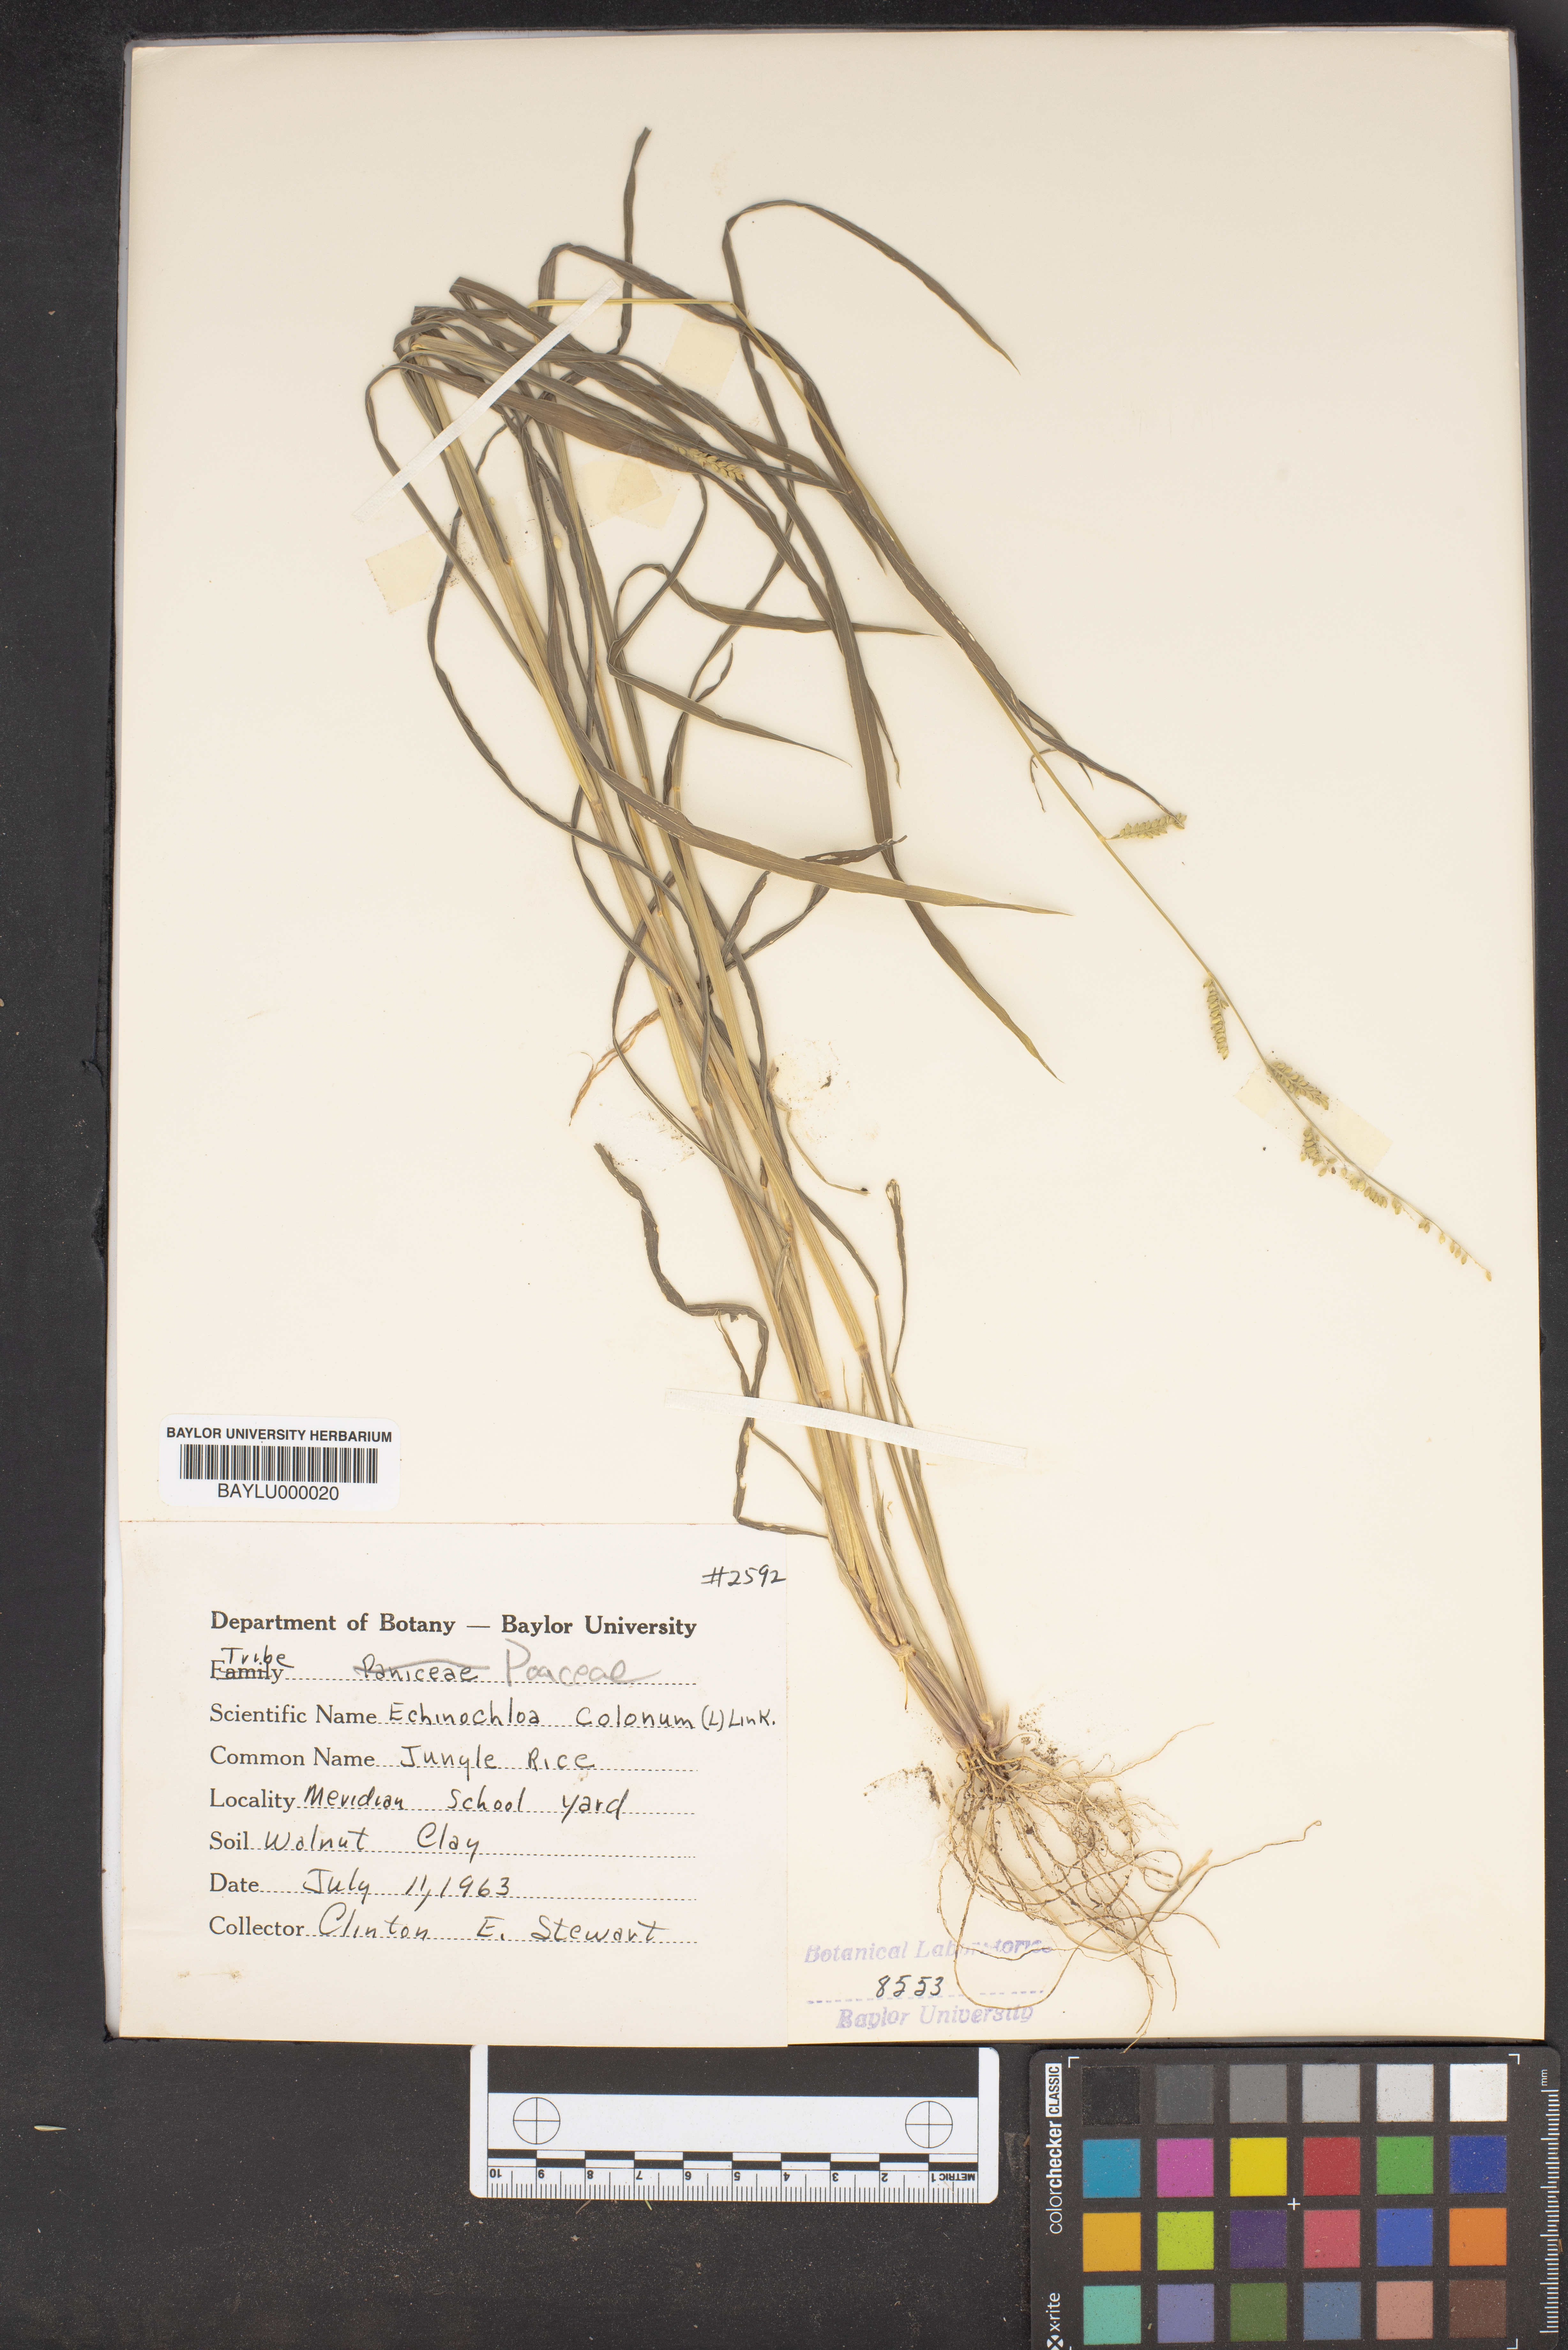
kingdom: Plantae
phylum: Tracheophyta
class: Liliopsida
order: Poales
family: Poaceae
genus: Echinochloa
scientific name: Echinochloa colonum
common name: Jungle rice
